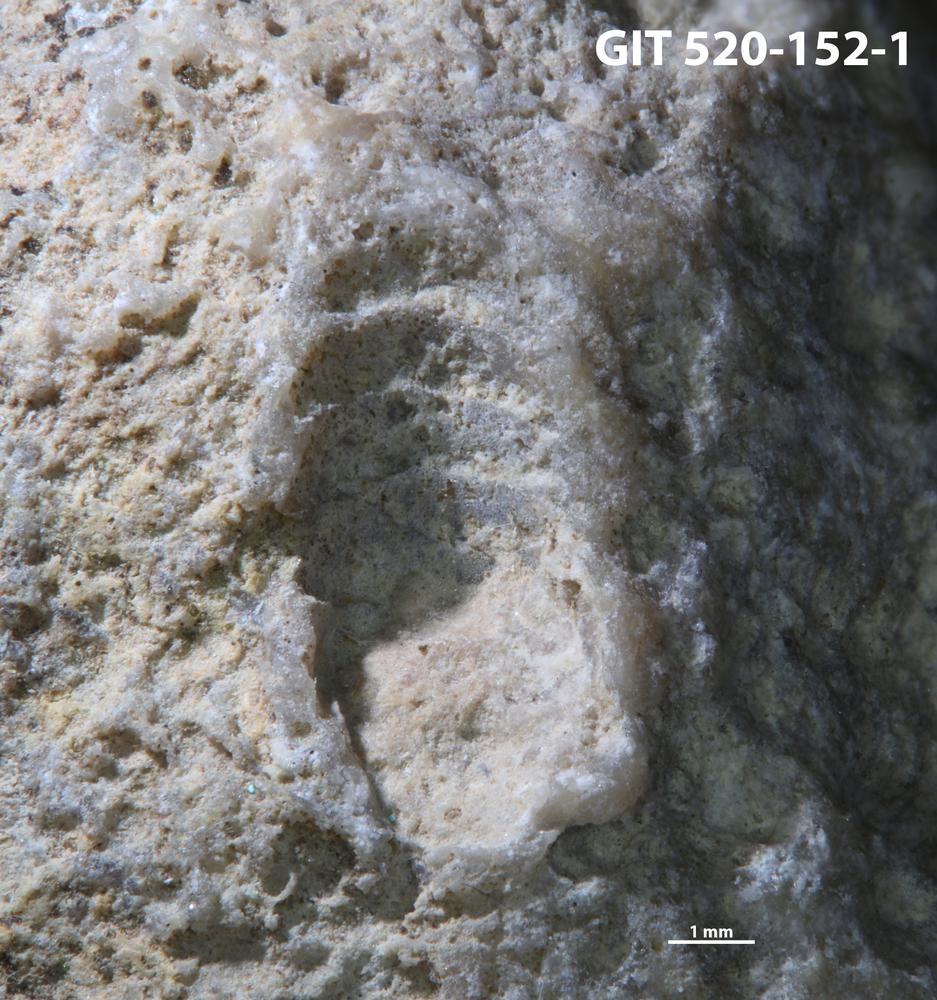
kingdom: Animalia
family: Cornulitidae
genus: Cornulites
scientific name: Cornulites
